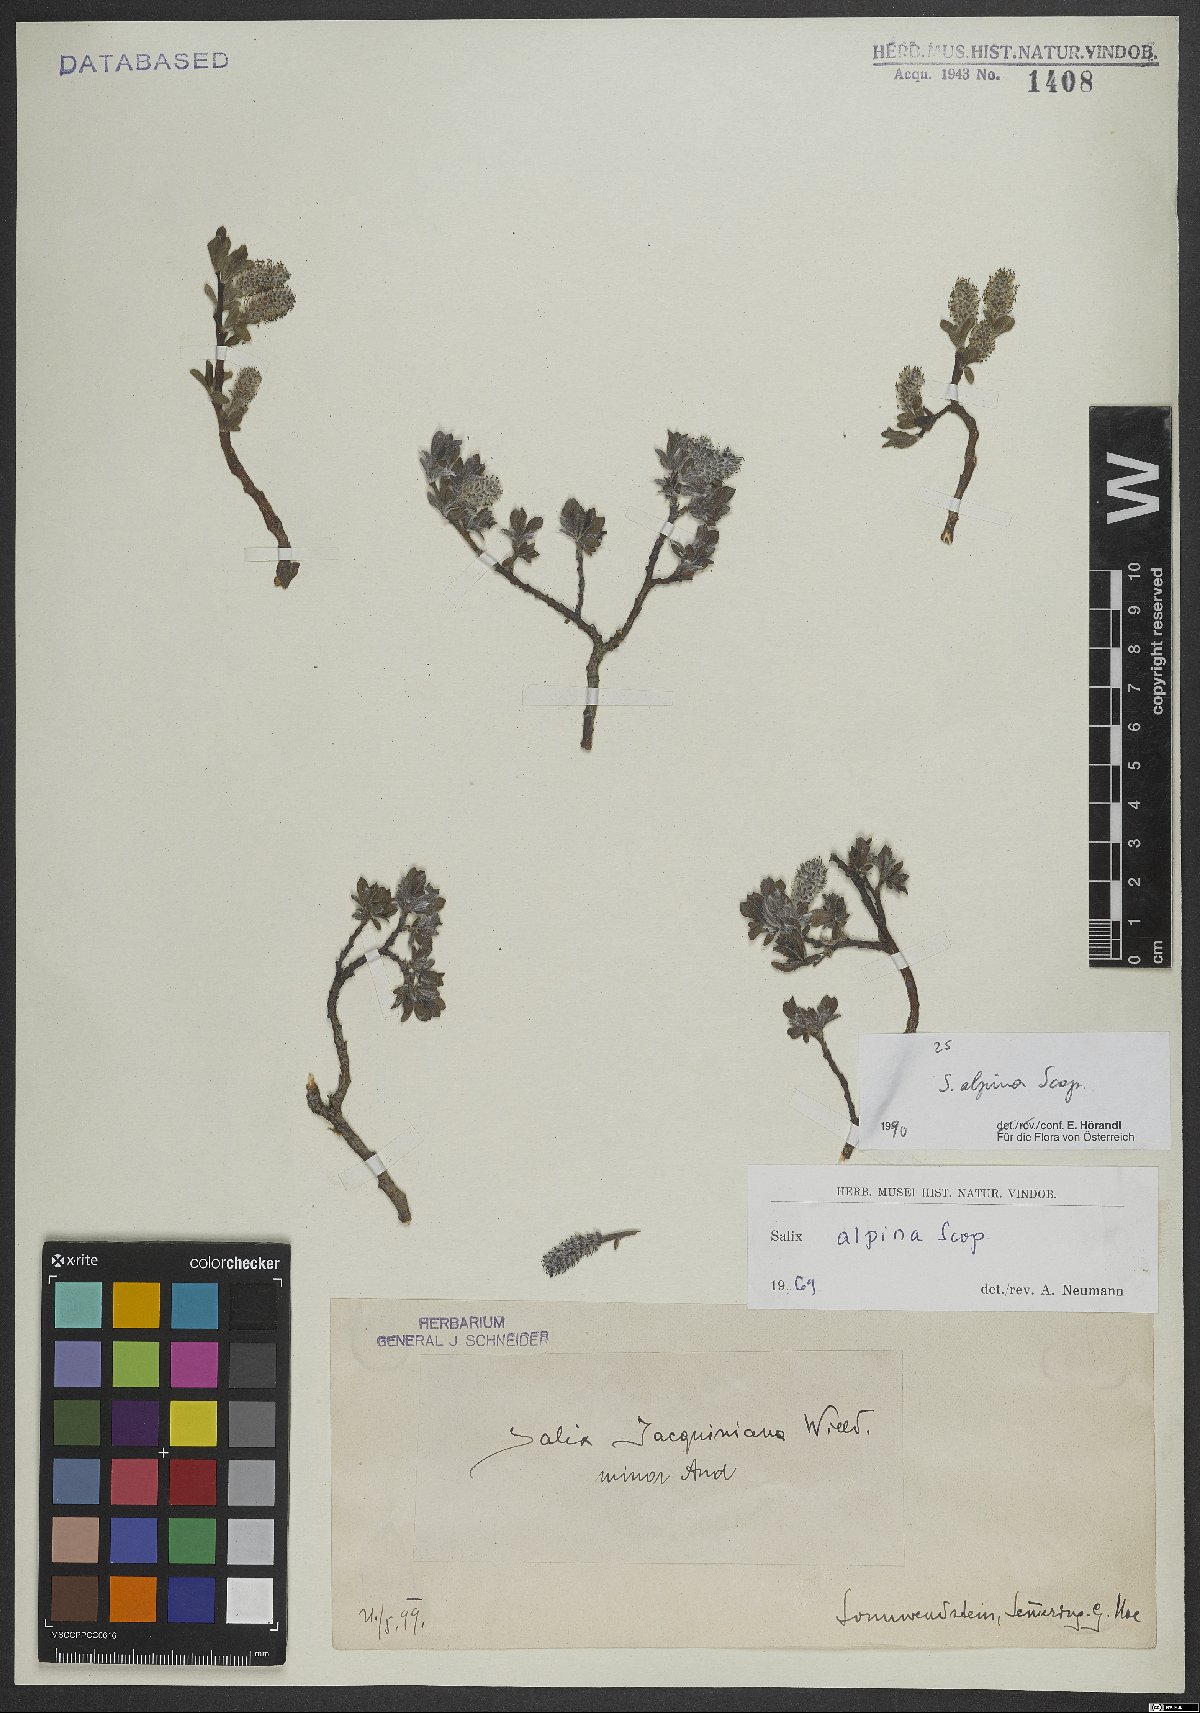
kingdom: Plantae
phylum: Tracheophyta
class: Magnoliopsida
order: Malpighiales
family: Salicaceae
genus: Salix
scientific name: Salix alpina
